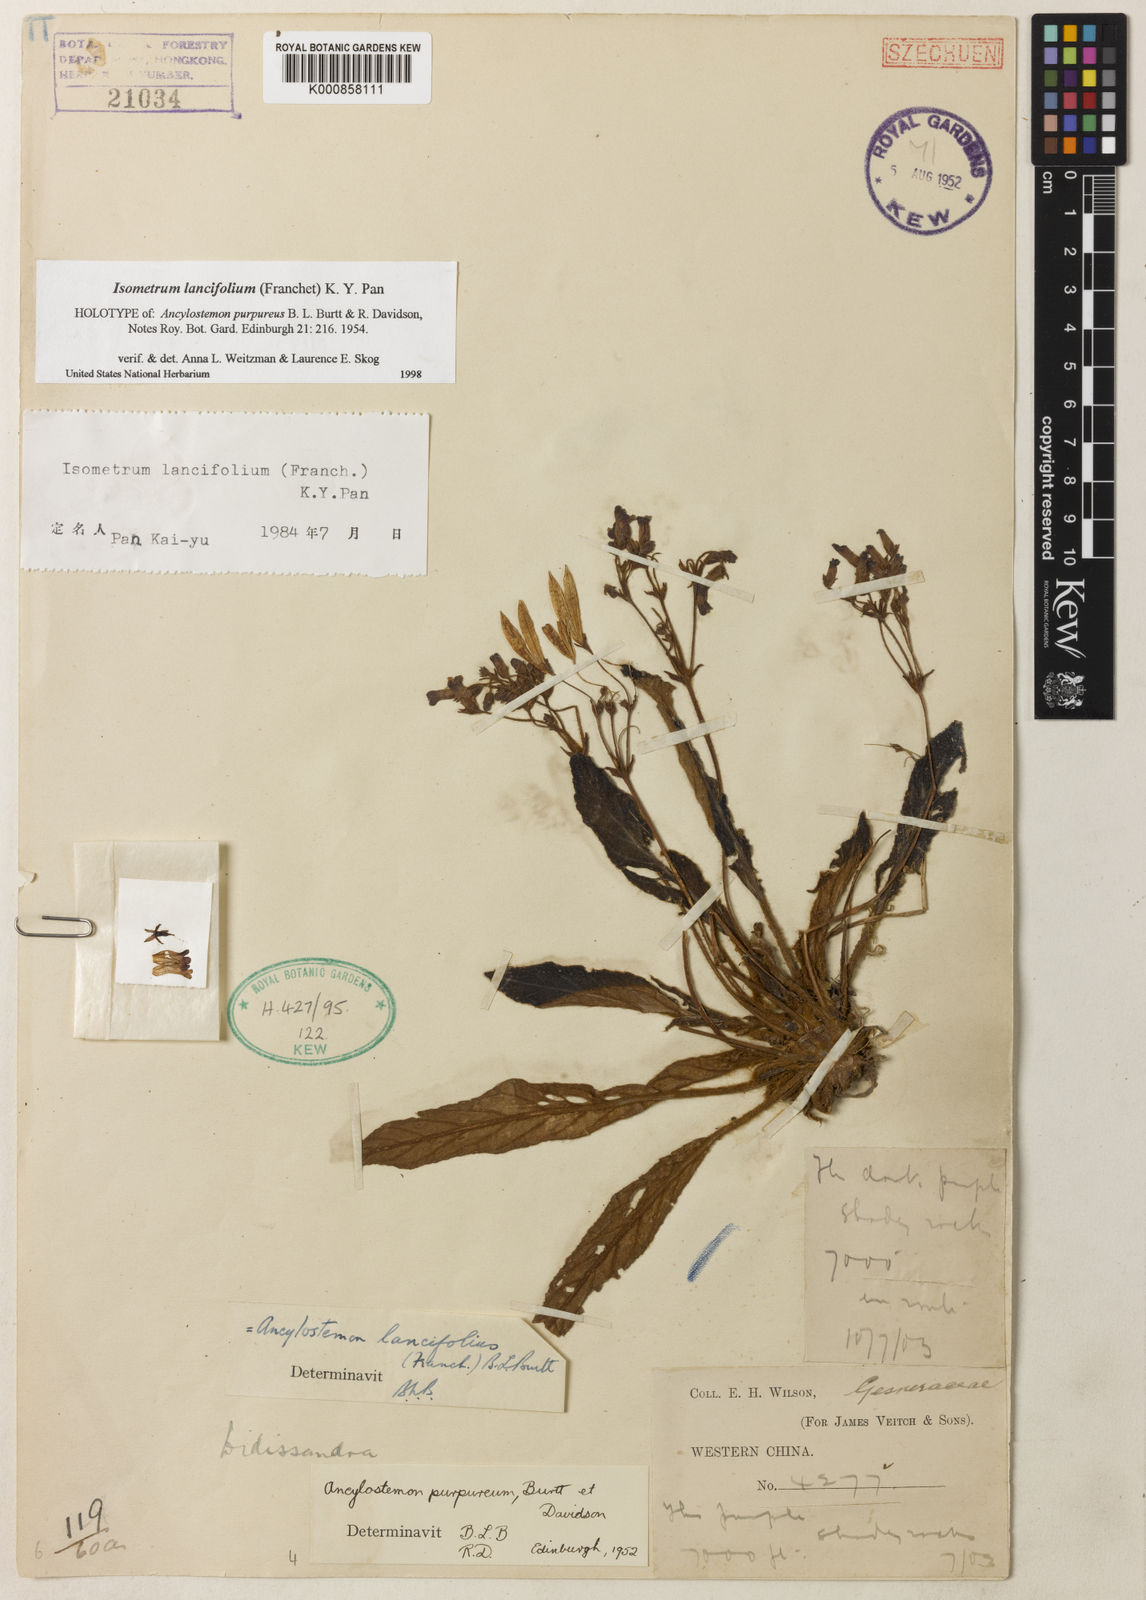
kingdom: Plantae
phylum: Tracheophyta
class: Magnoliopsida
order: Lamiales
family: Gesneriaceae
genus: Oreocharis
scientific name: Oreocharis
